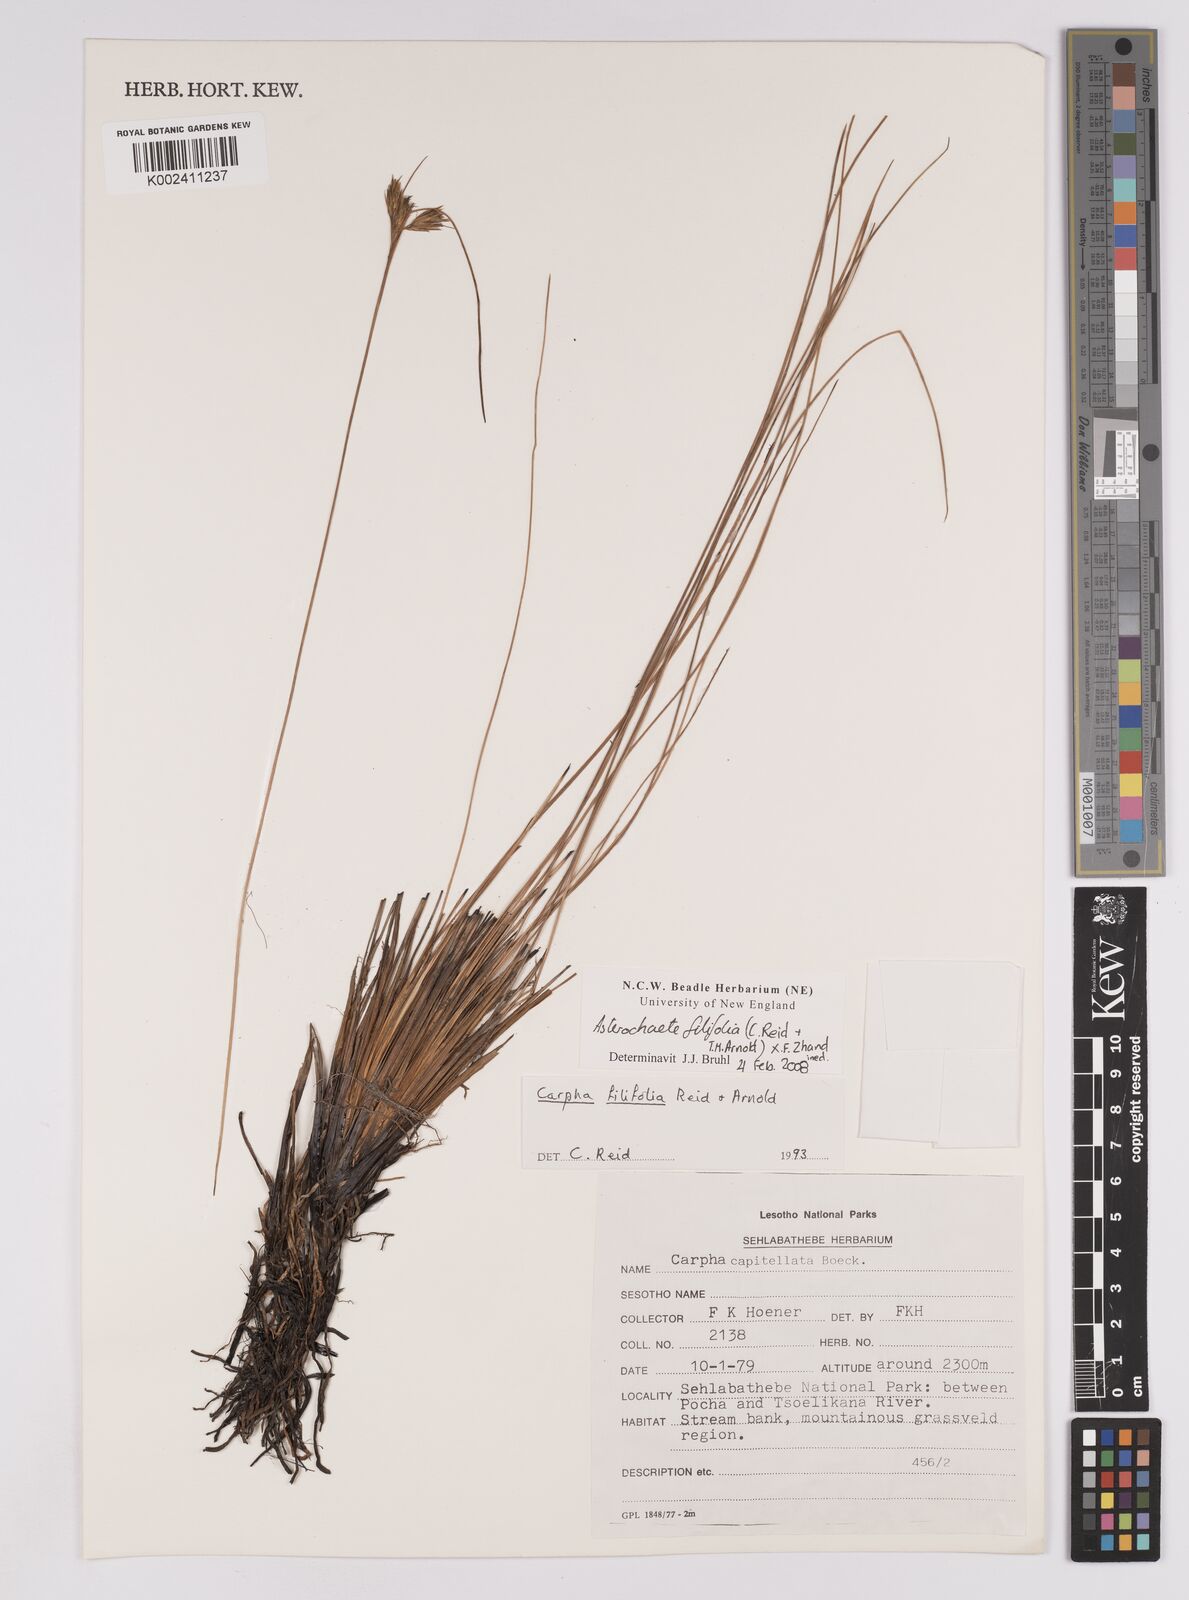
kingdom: Plantae
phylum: Tracheophyta
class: Liliopsida
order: Poales
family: Cyperaceae
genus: Carpha
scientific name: Carpha filifolia
